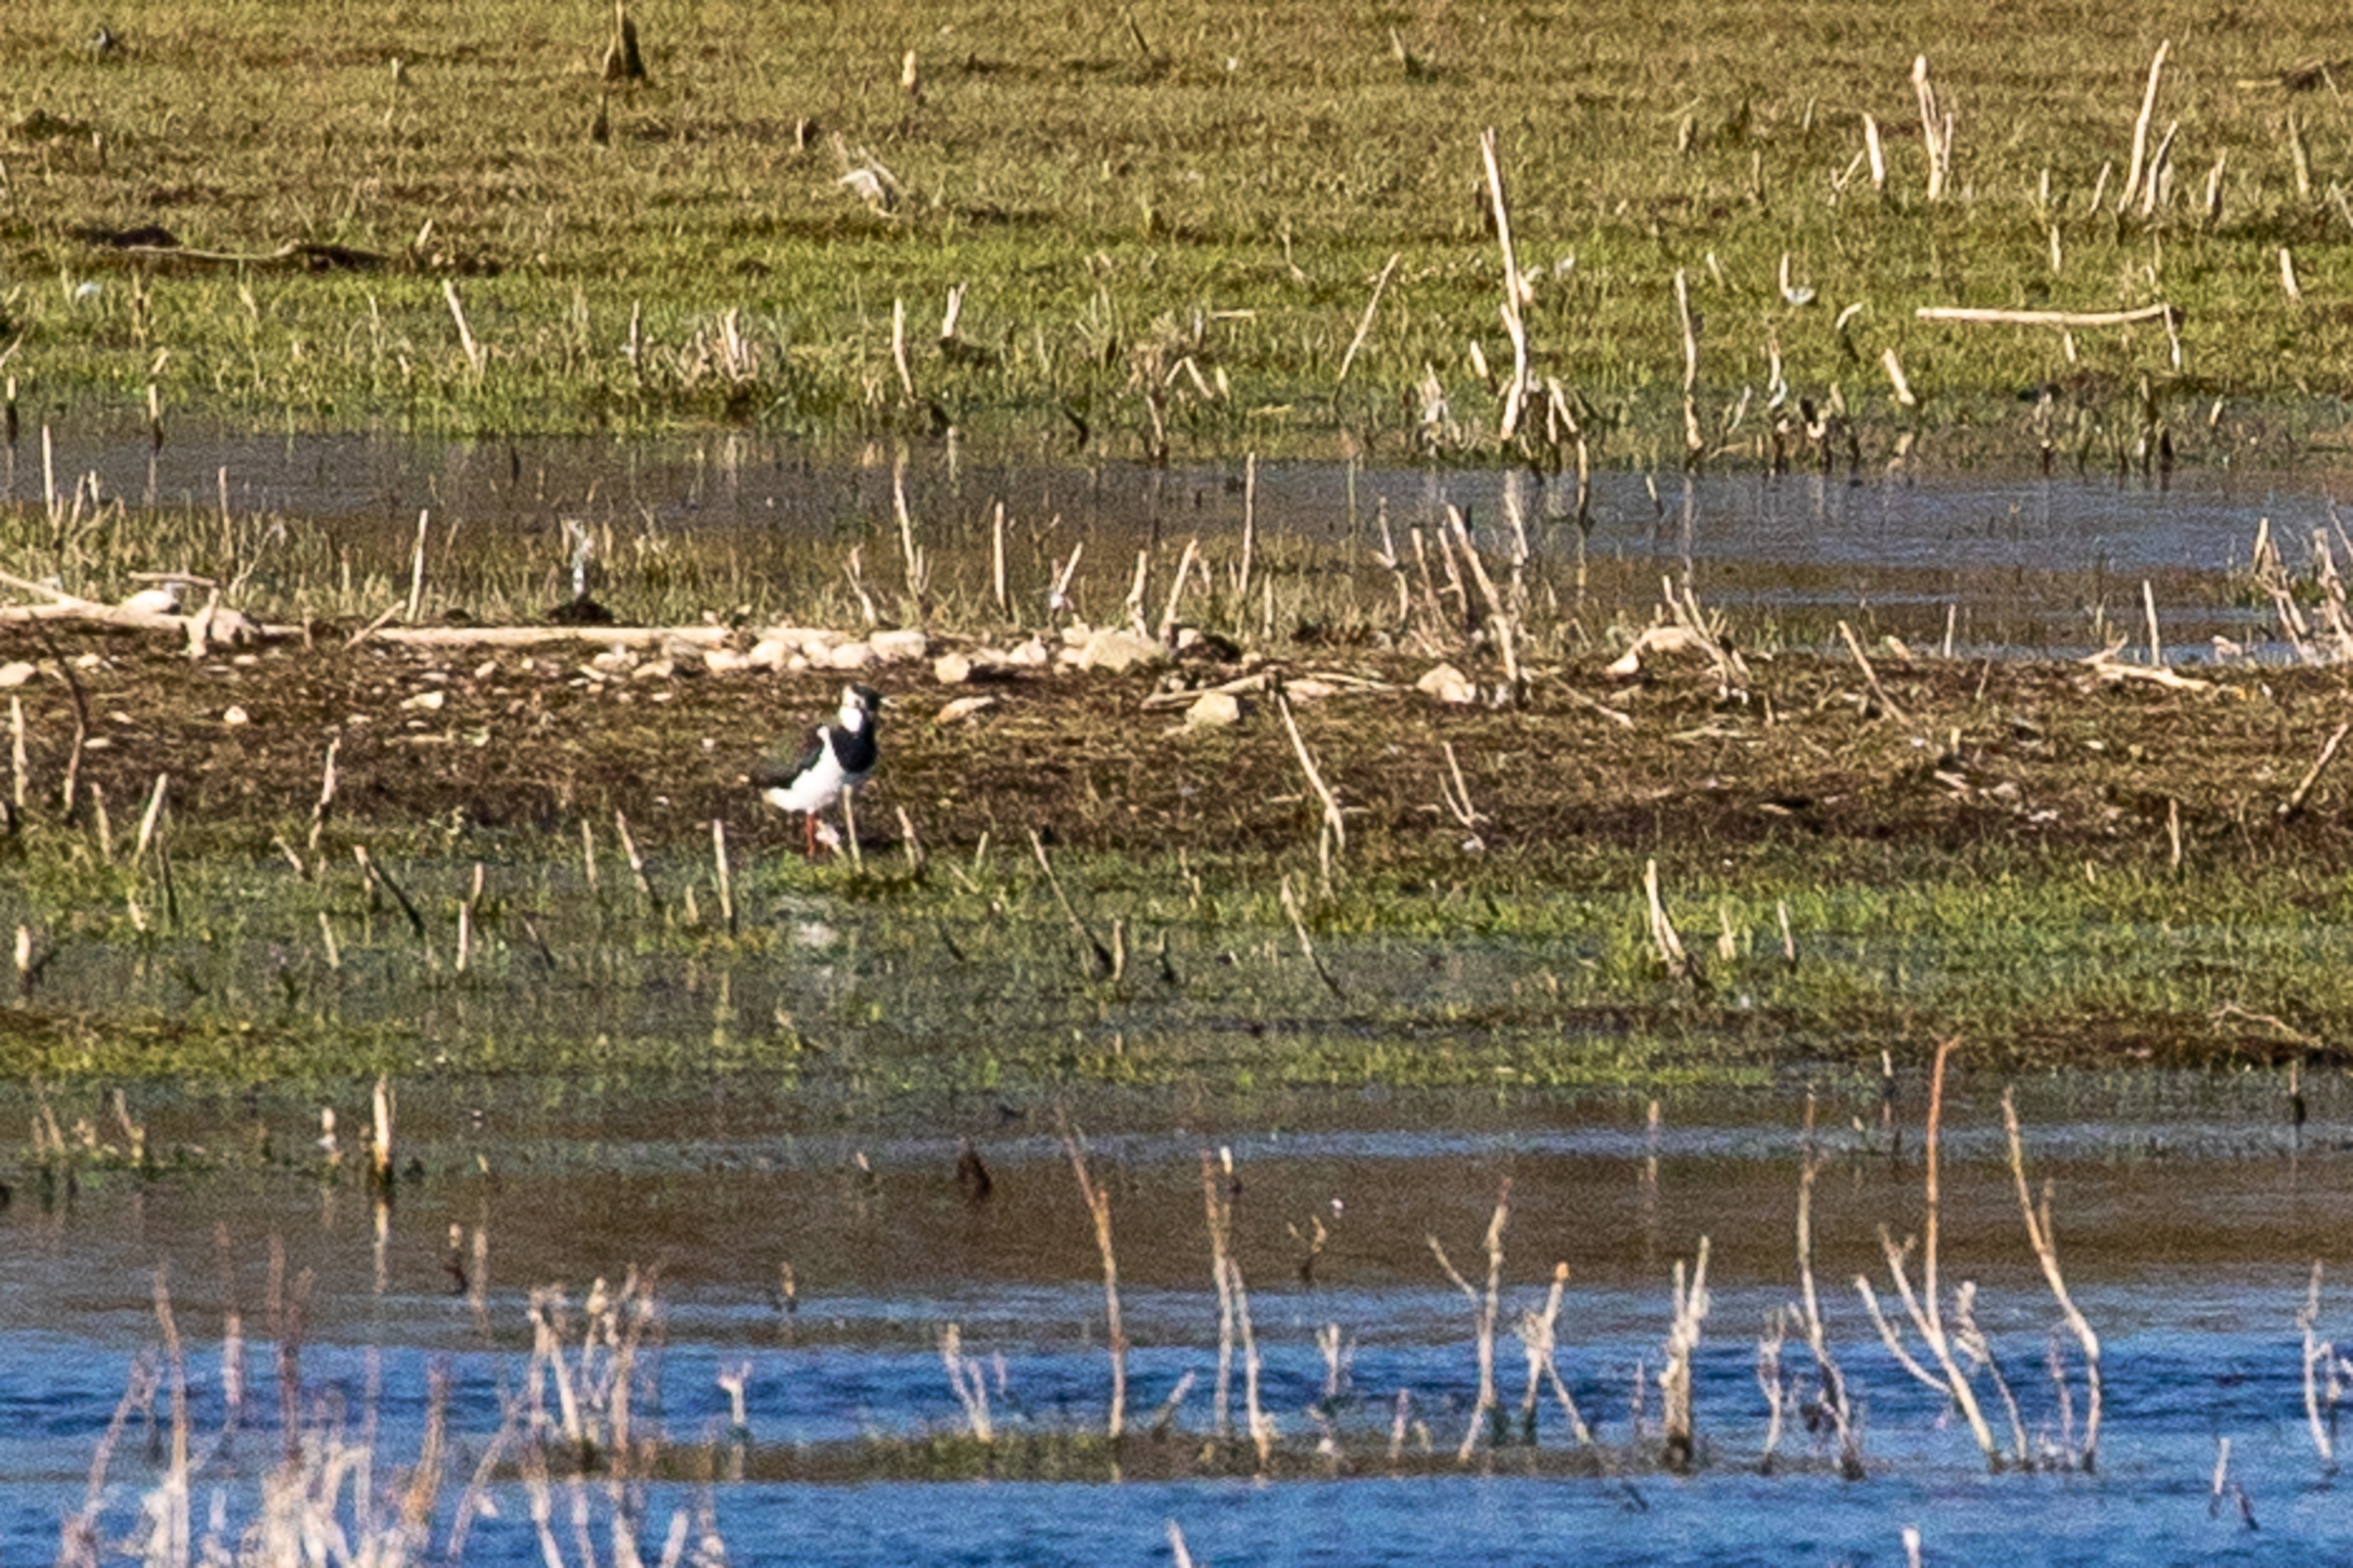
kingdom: Animalia
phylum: Chordata
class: Aves
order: Charadriiformes
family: Charadriidae
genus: Vanellus
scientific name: Vanellus vanellus
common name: Vibe
